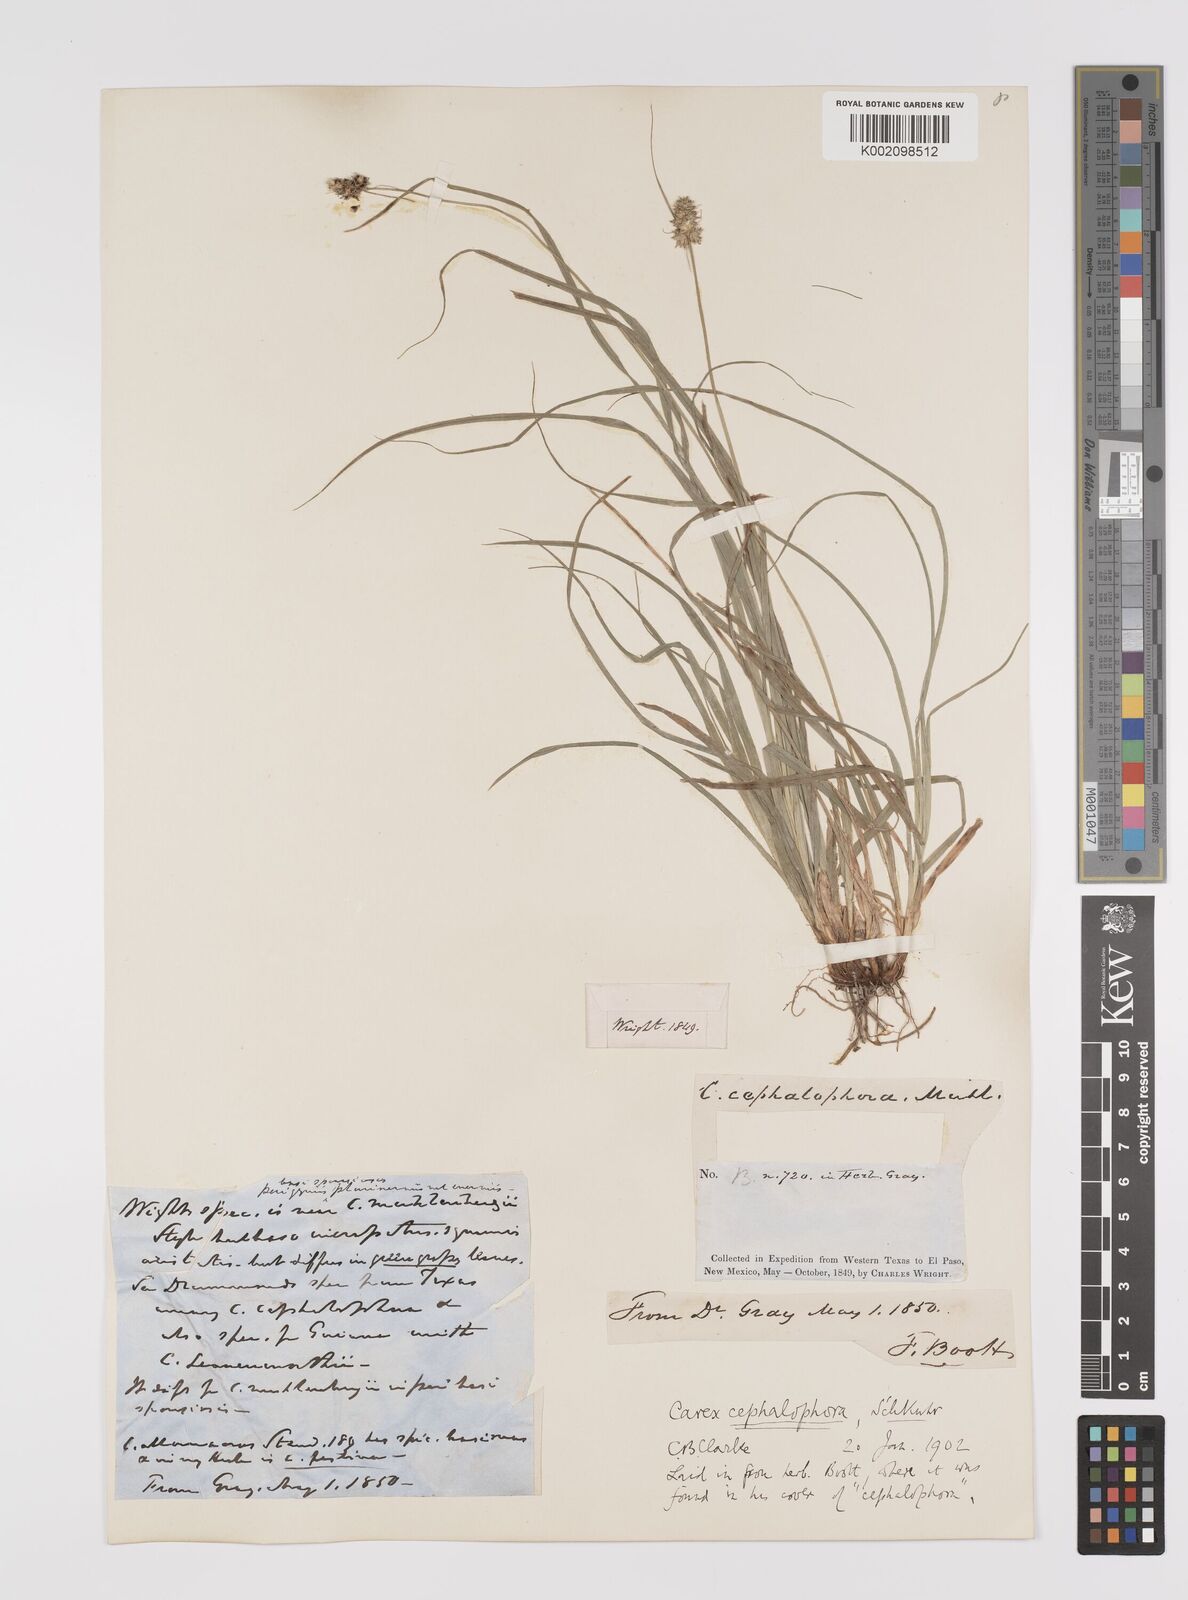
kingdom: Plantae
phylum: Tracheophyta
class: Liliopsida
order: Poales
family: Cyperaceae
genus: Carex
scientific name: Carex cephalophora
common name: Oval-headed sedge
